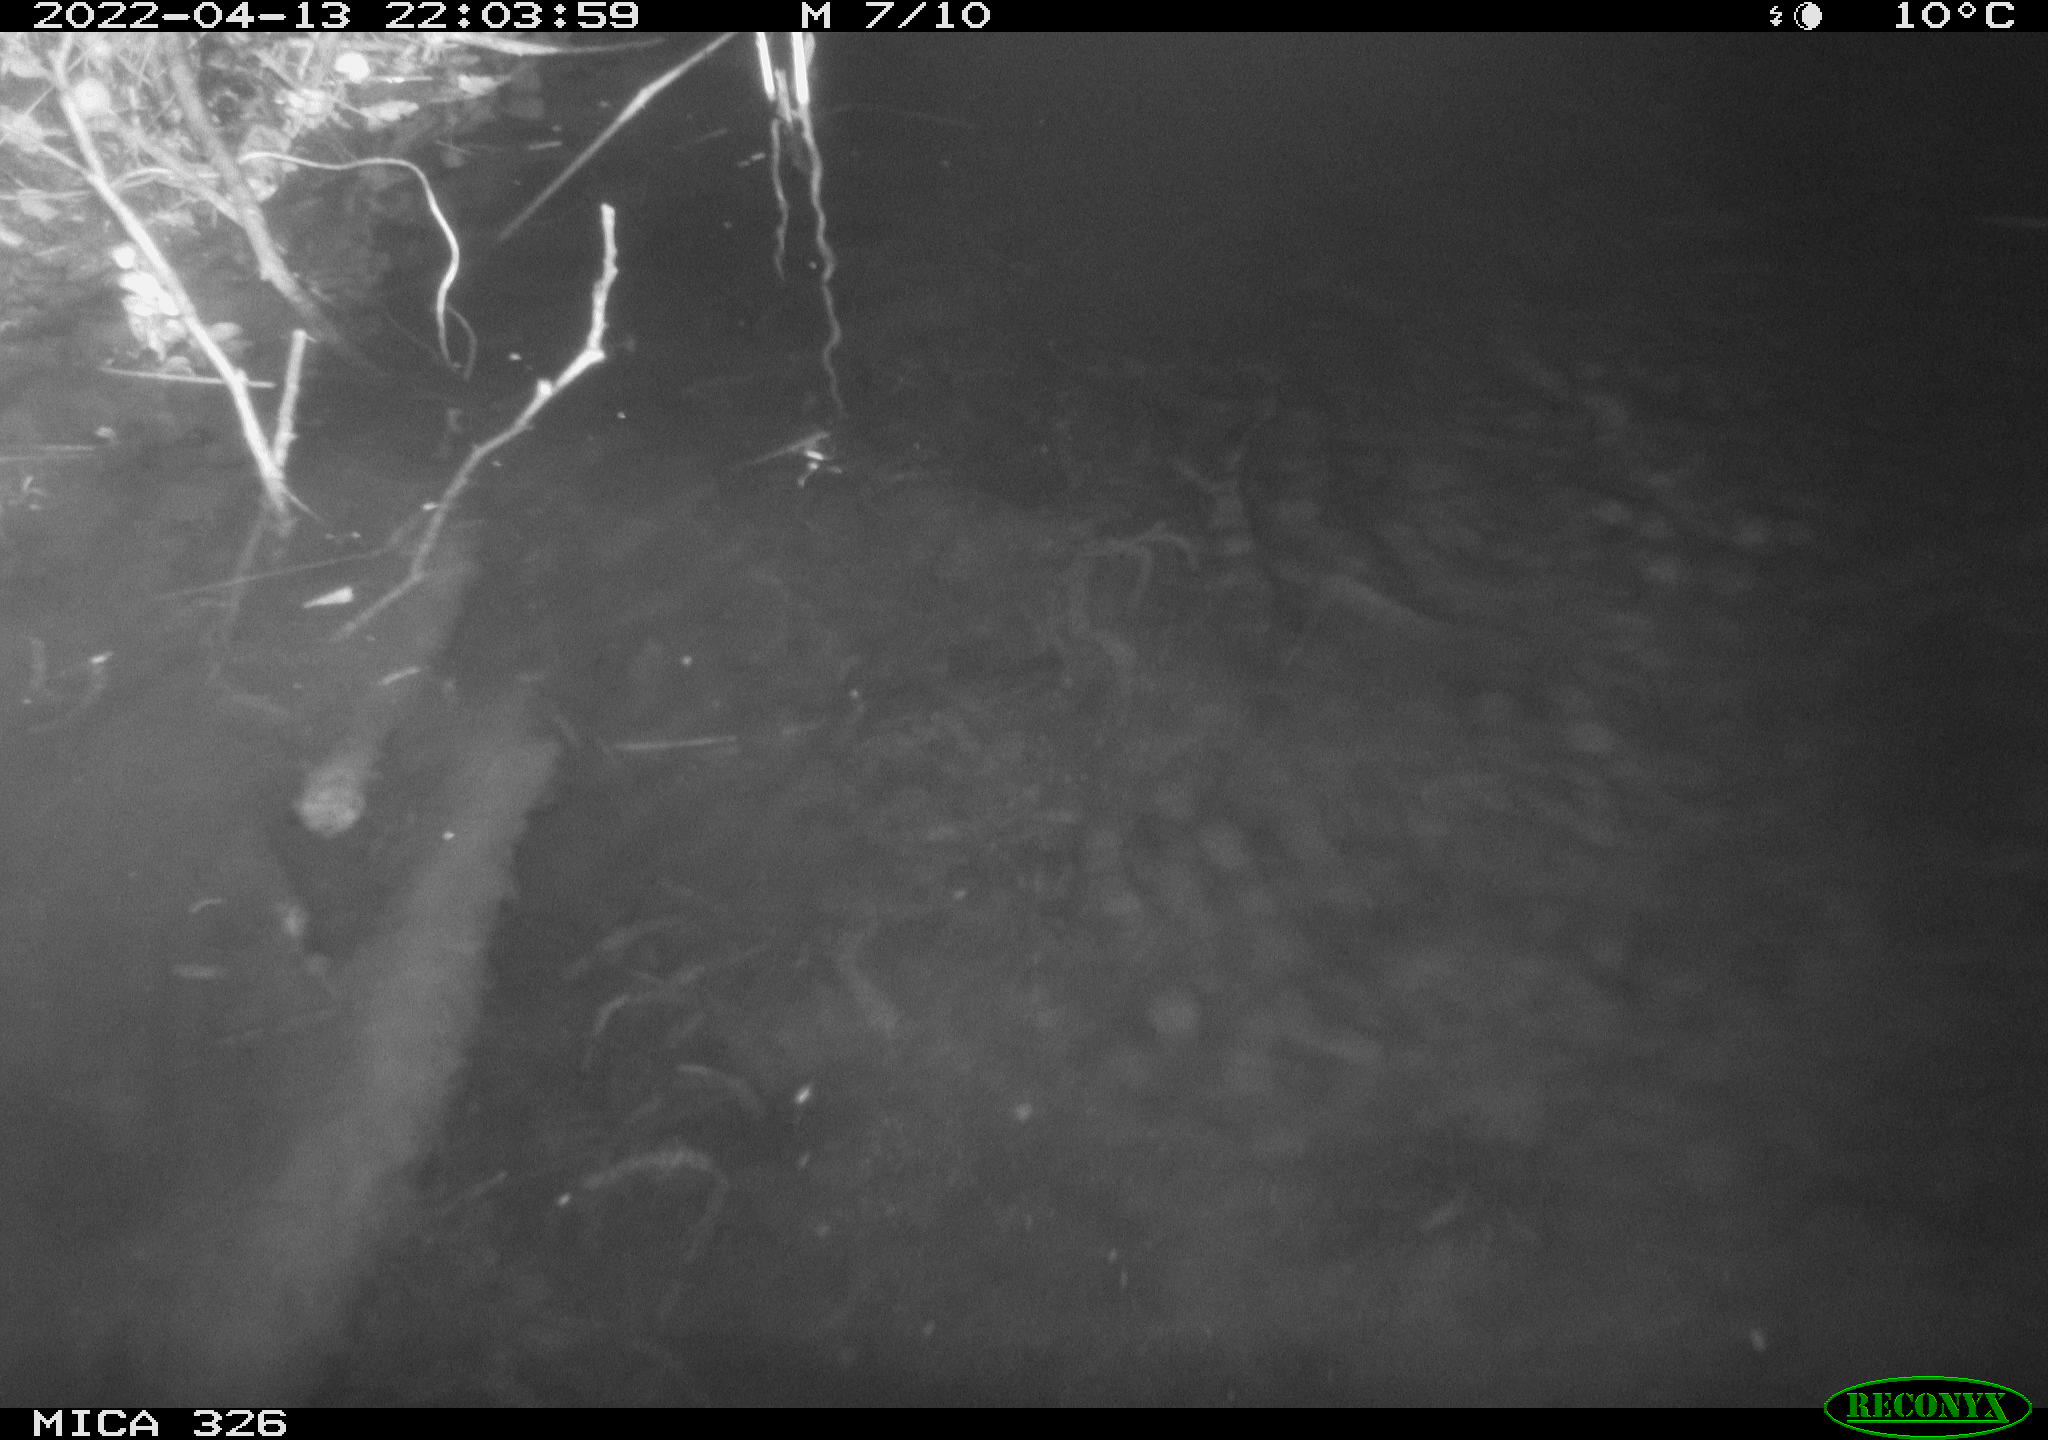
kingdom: Animalia
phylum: Chordata
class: Mammalia
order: Rodentia
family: Cricetidae
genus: Ondatra
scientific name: Ondatra zibethicus
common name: Muskrat
